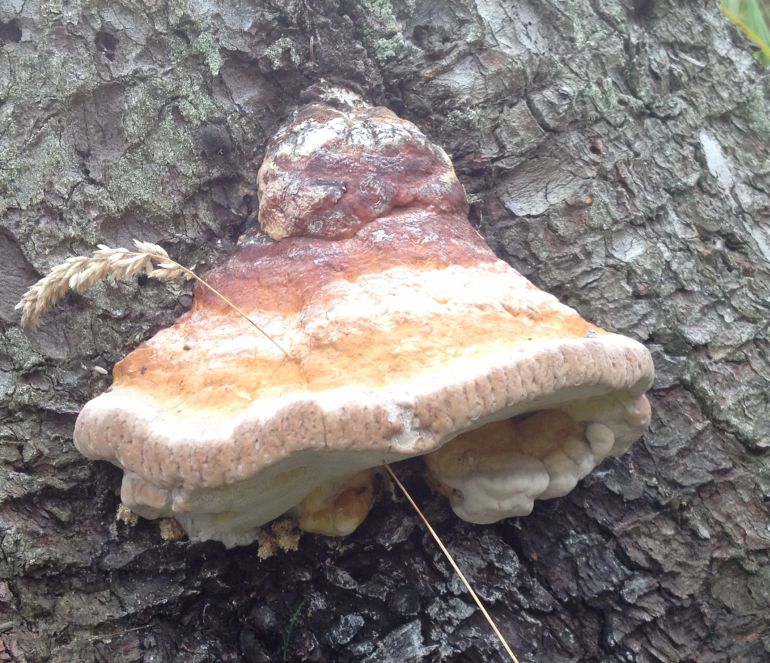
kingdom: Fungi
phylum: Basidiomycota
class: Agaricomycetes
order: Polyporales
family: Fomitopsidaceae
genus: Fomitopsis
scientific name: Fomitopsis pinicola
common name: randbæltet hovporesvamp
